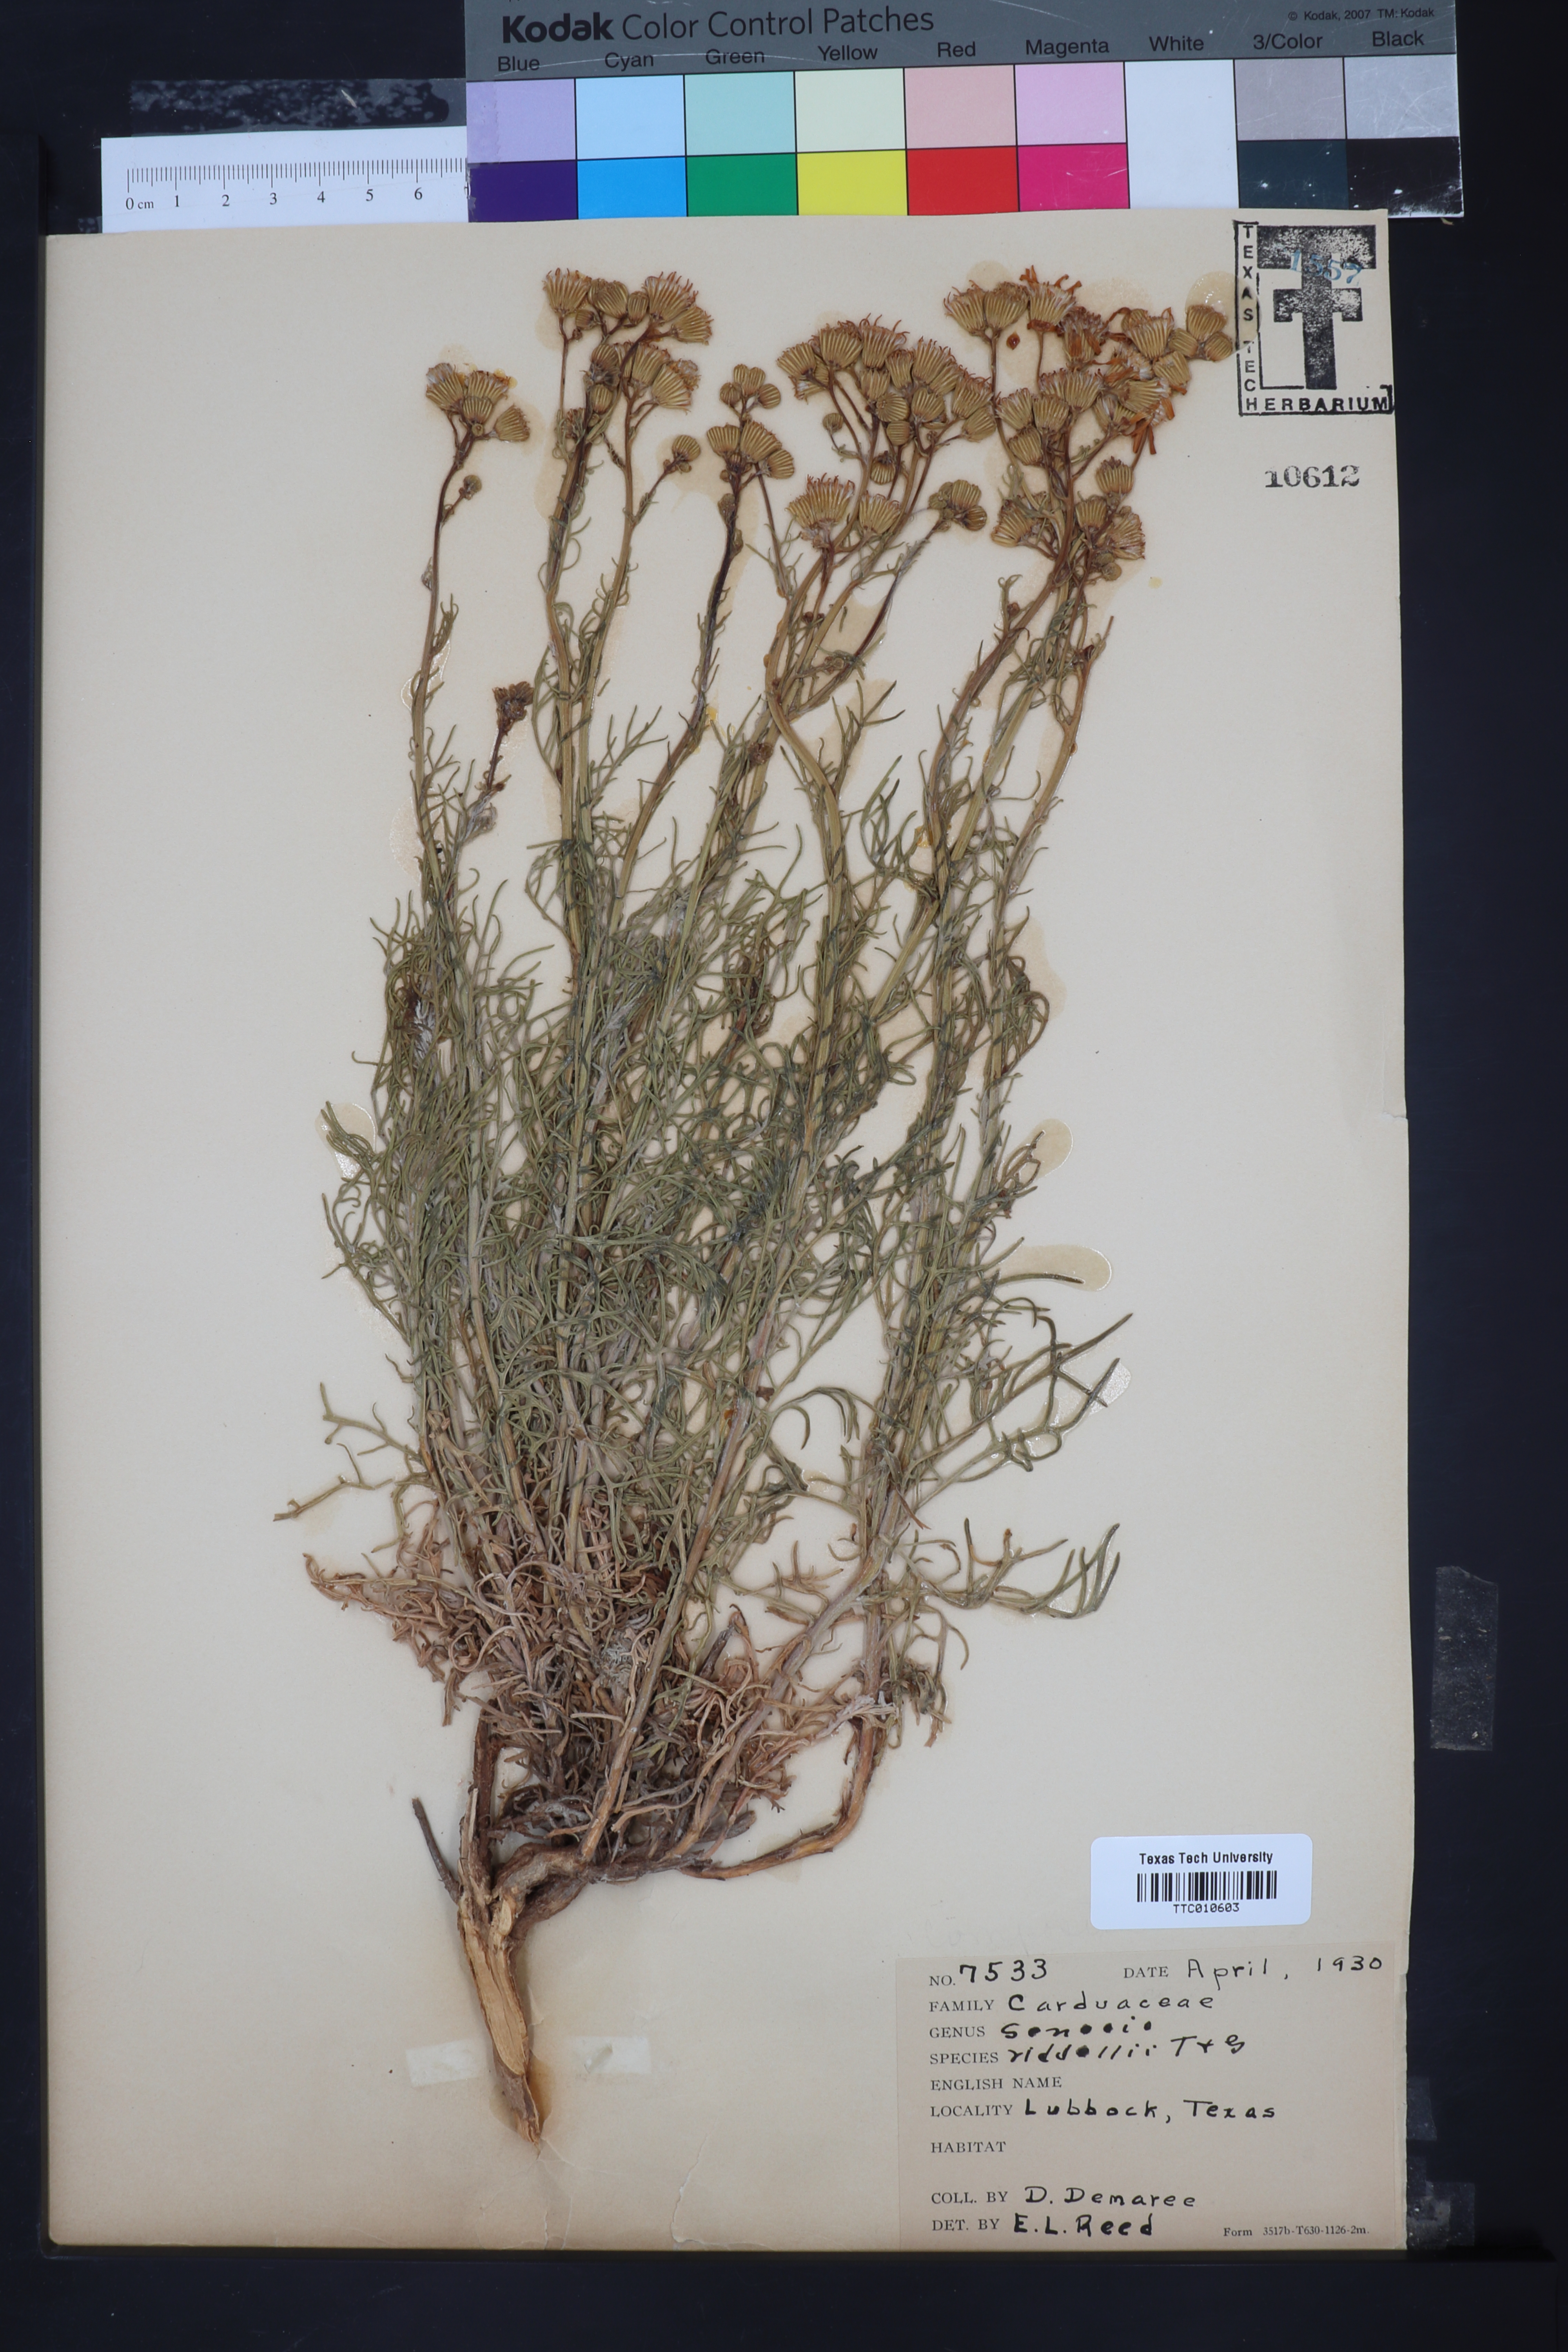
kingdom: Plantae
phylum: Tracheophyta
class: Magnoliopsida
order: Asterales
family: Asteraceae
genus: Senecio
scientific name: Senecio riddellii
